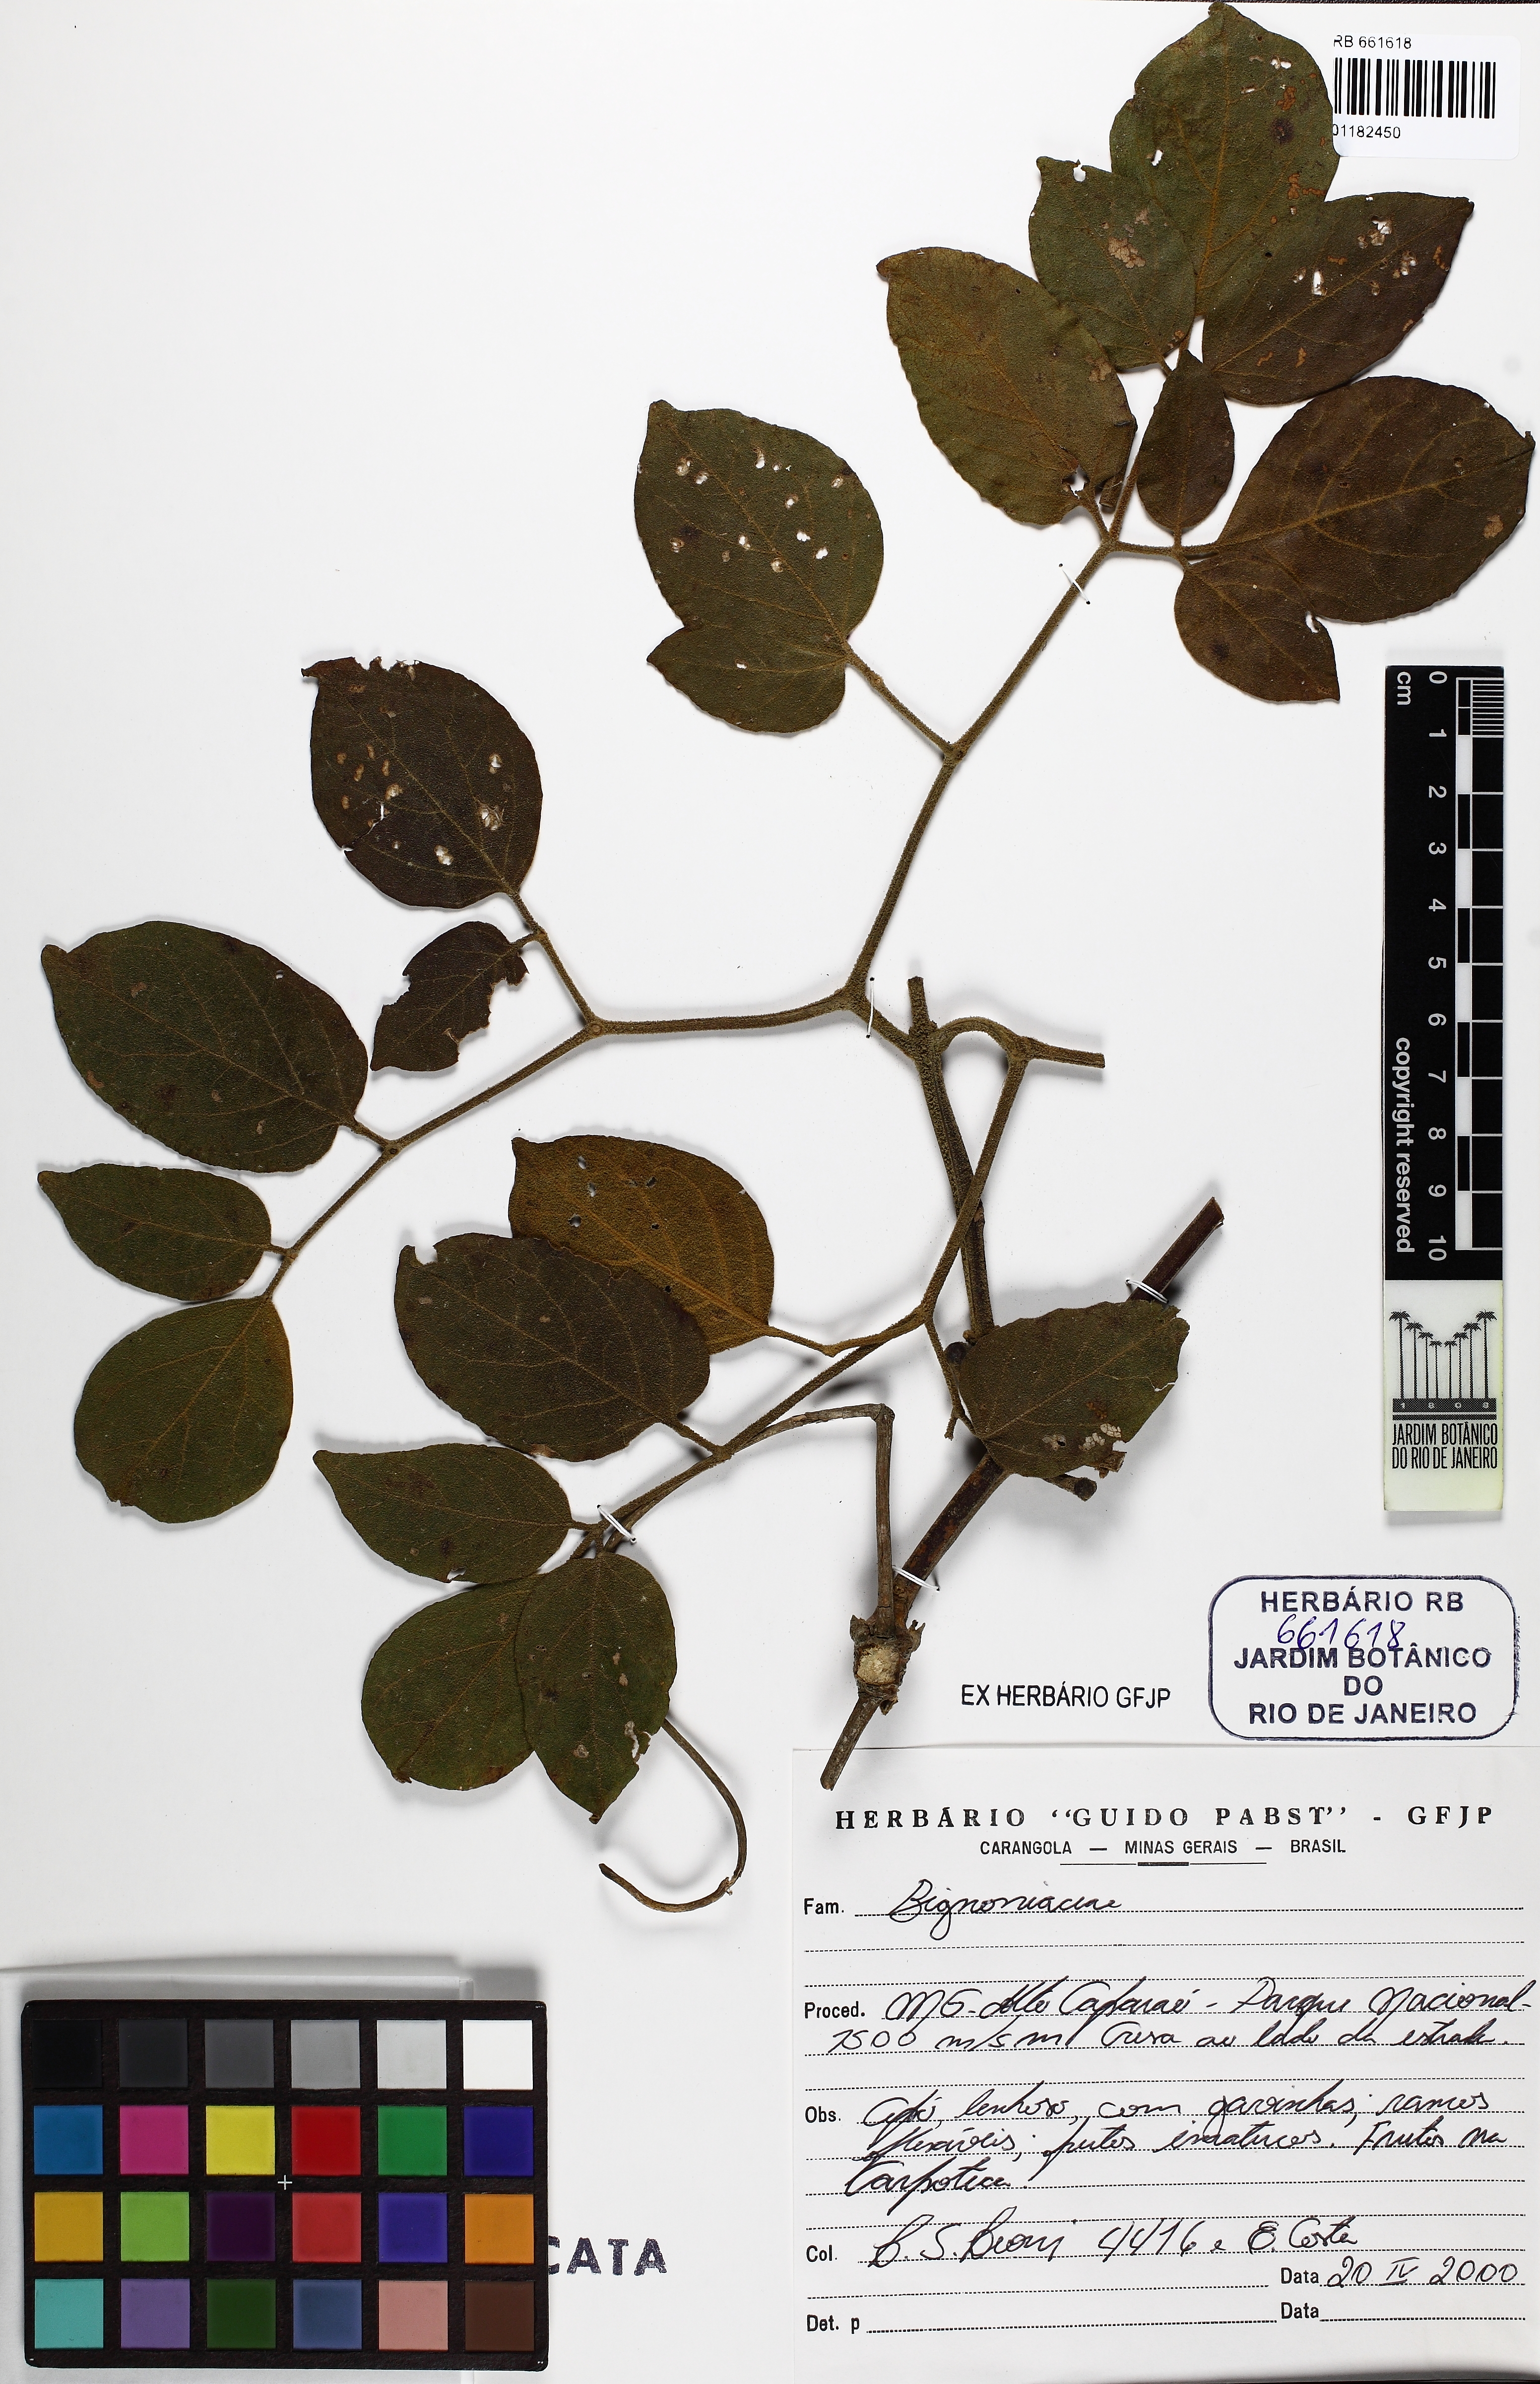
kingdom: Plantae
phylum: Tracheophyta
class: Magnoliopsida
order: Lamiales
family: Bignoniaceae
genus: Pleonotoma
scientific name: Pleonotoma tetraquetra
